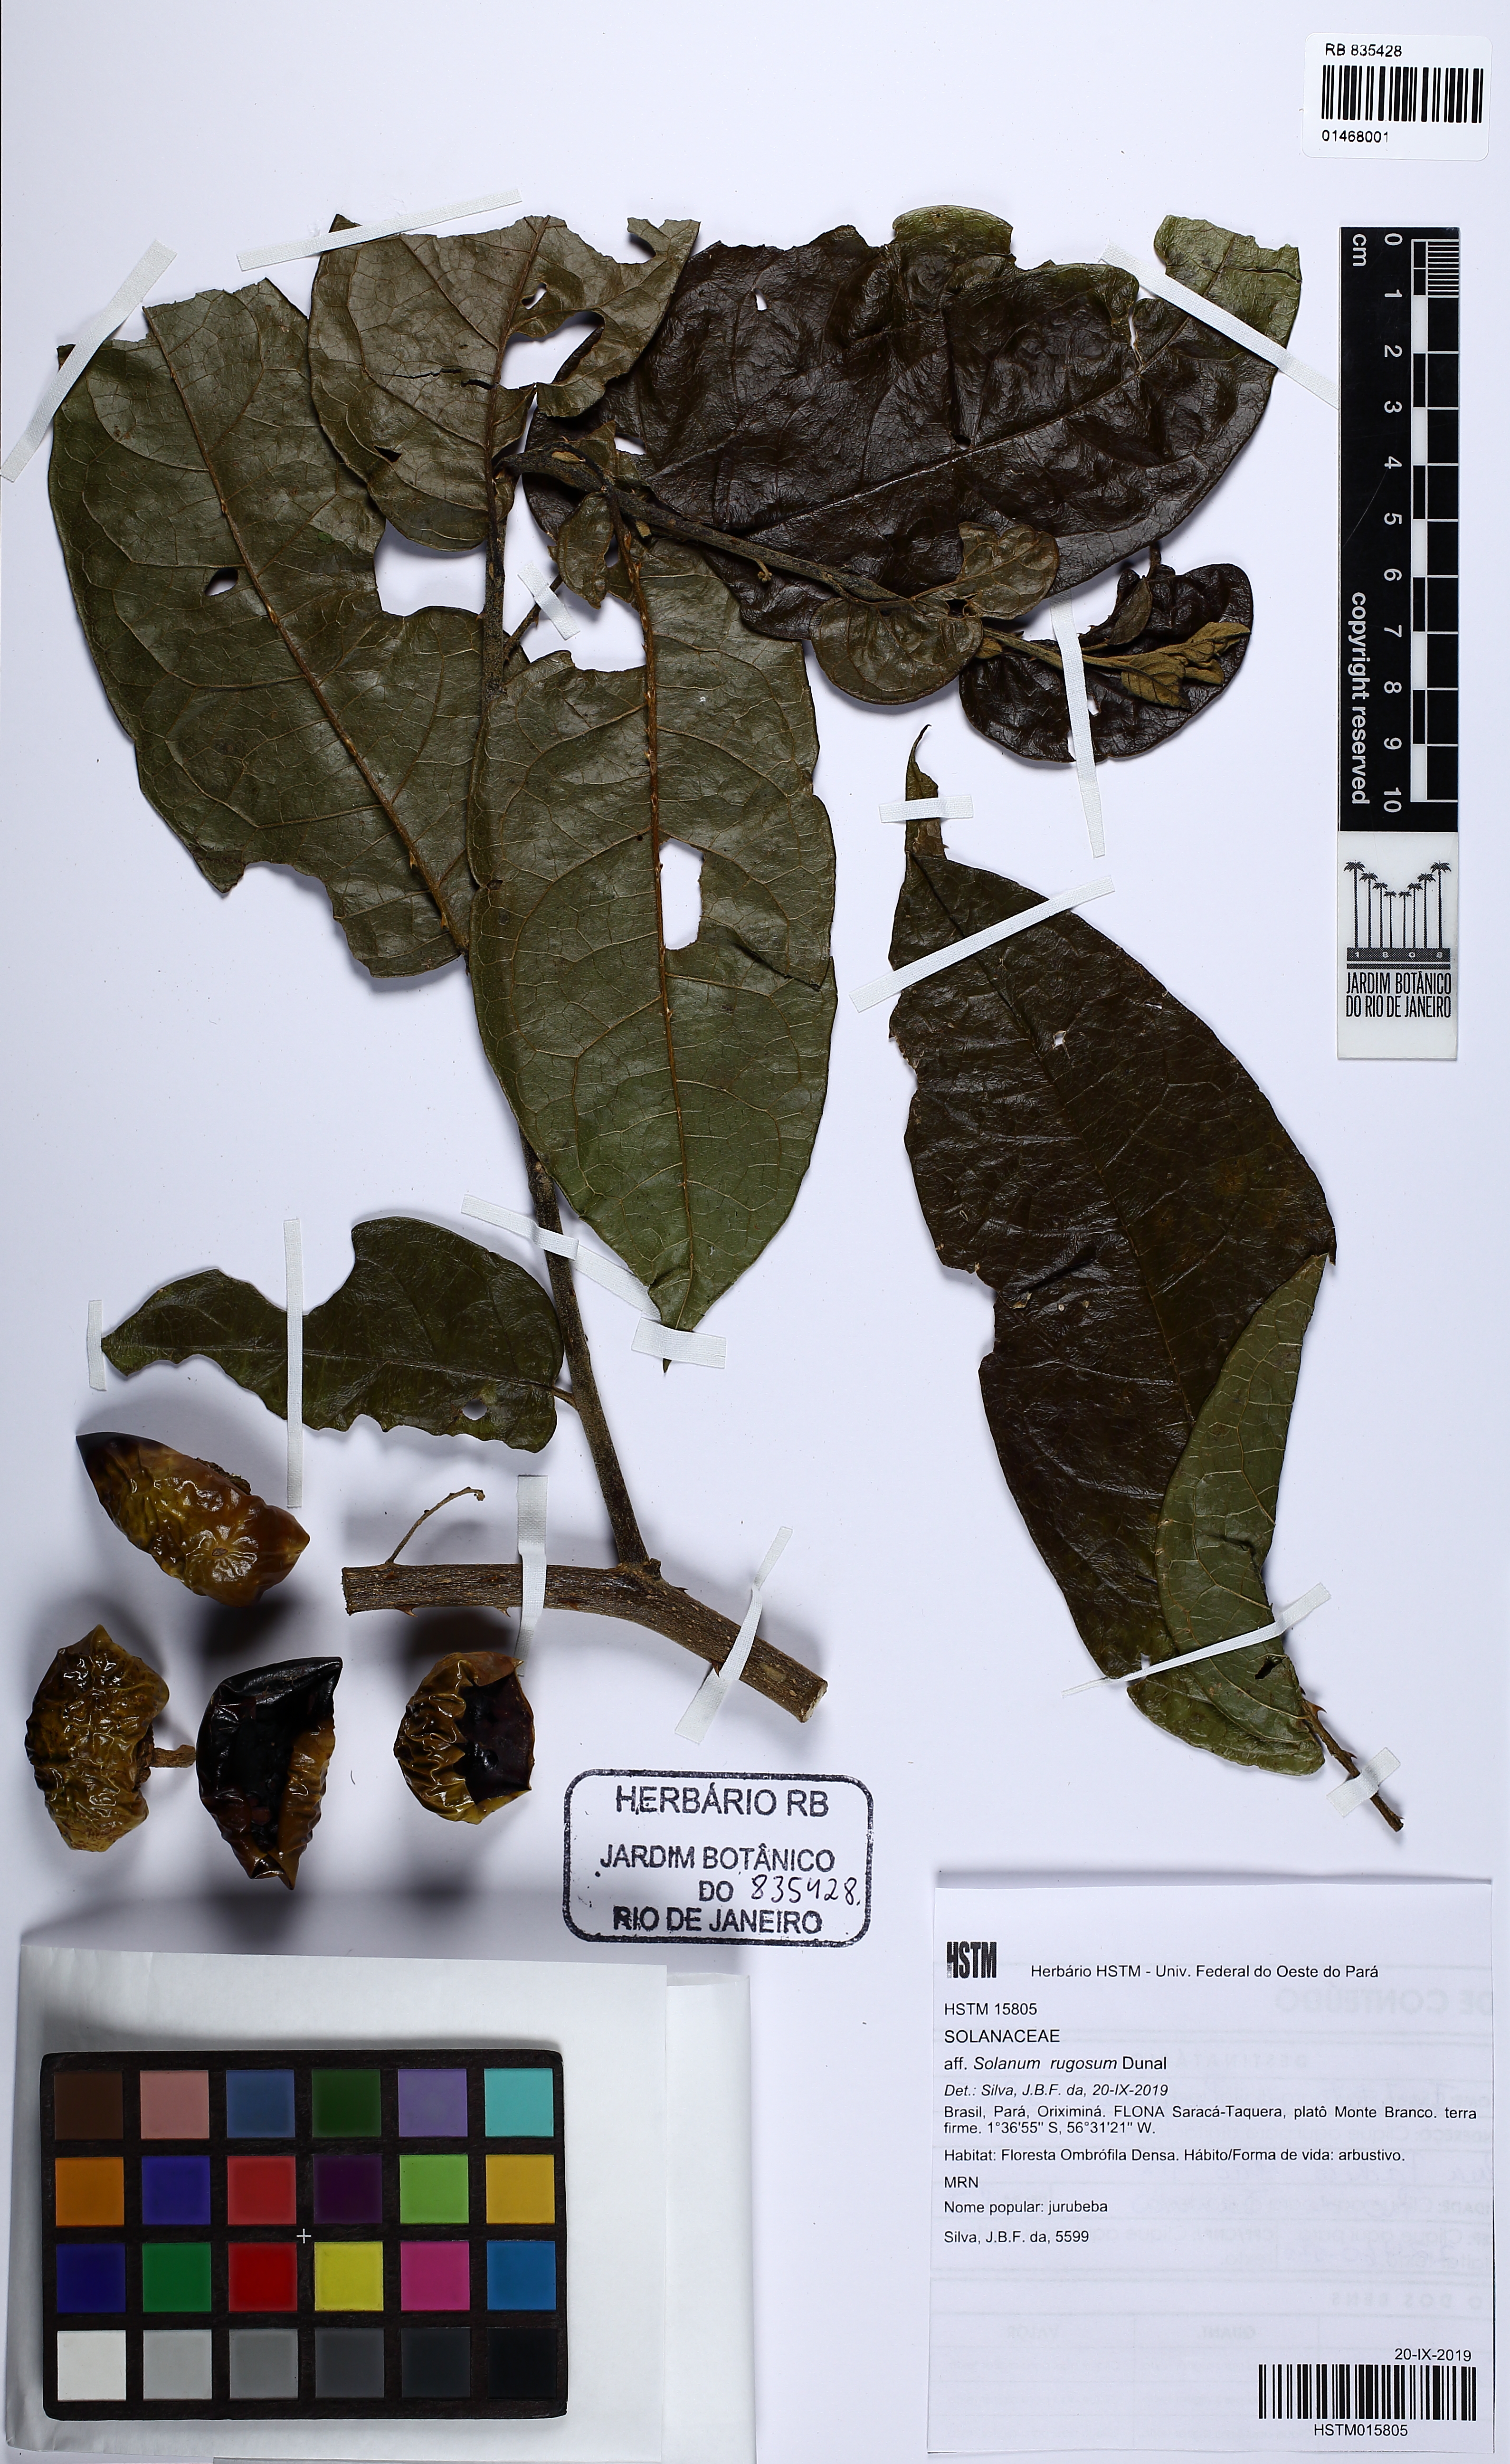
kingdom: Plantae
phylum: Tracheophyta
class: Magnoliopsida
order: Solanales
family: Solanaceae
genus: Solanum
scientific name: Solanum rugosum
